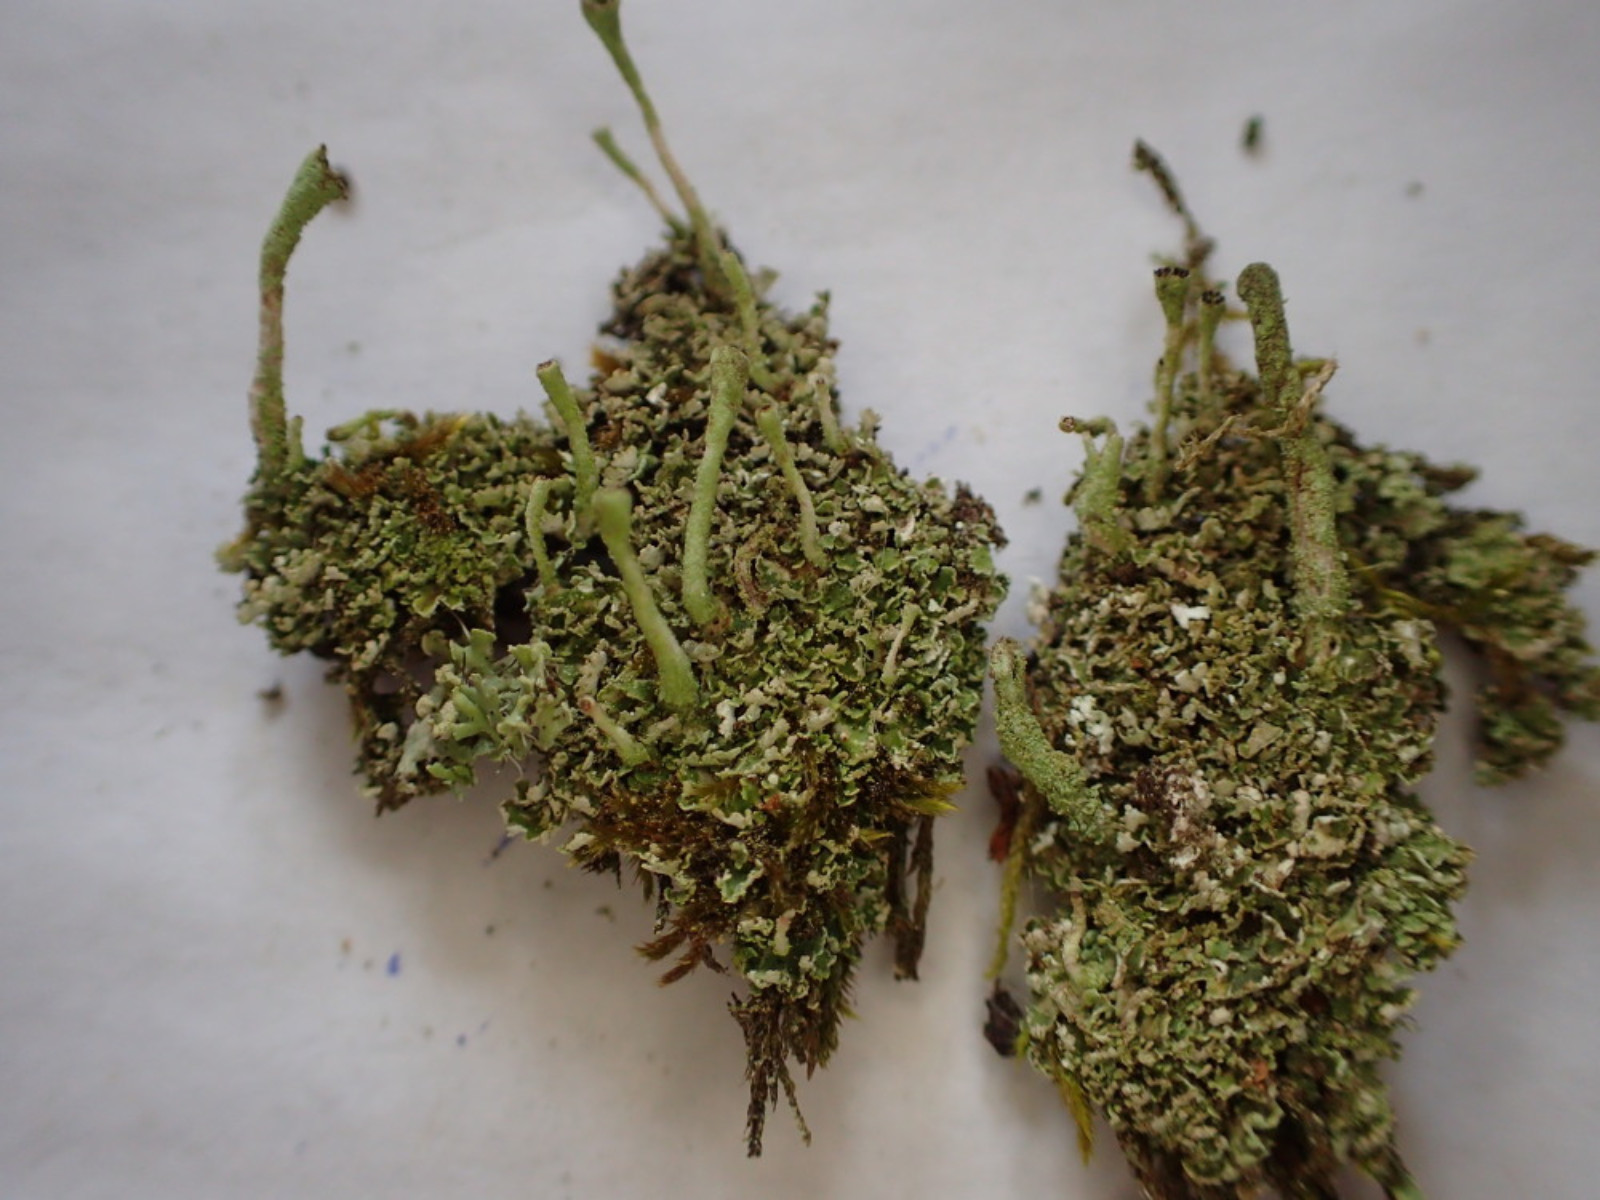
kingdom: Fungi
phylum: Ascomycota
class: Lecanoromycetes
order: Lecanorales
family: Cladoniaceae
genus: Cladonia
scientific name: Cladonia
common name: brungrøn bægerlav
